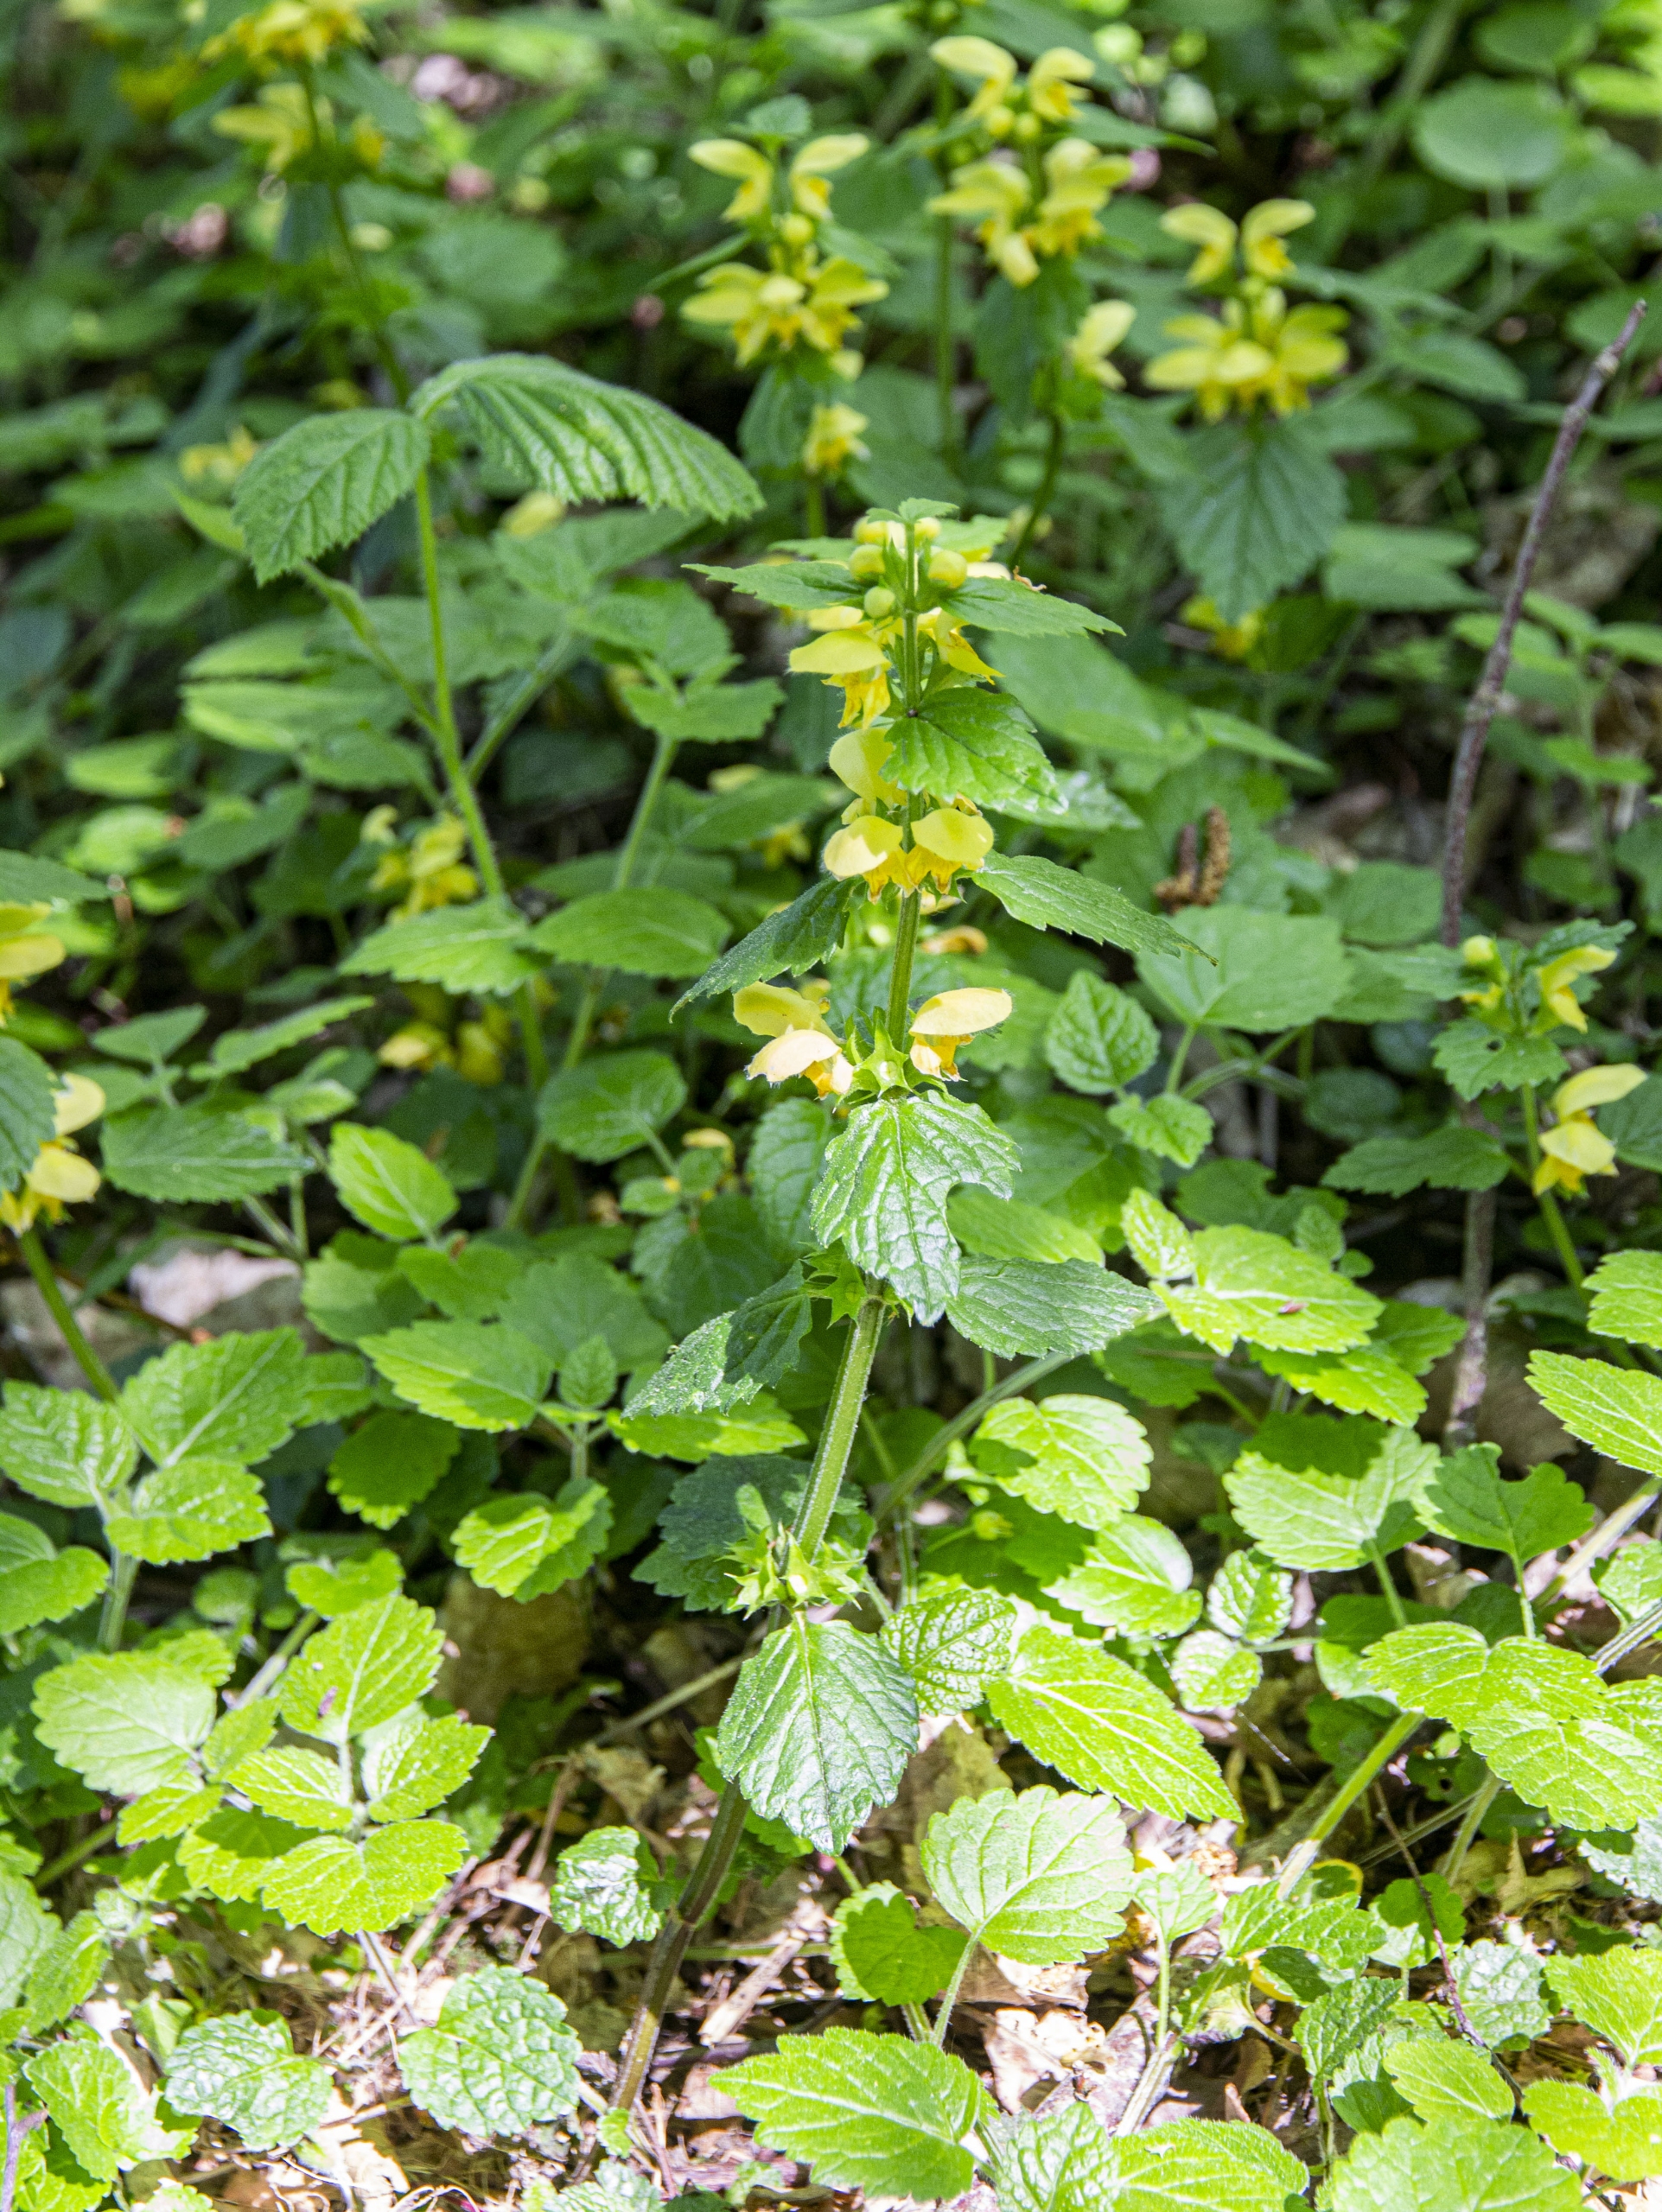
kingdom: Plantae
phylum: Tracheophyta
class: Magnoliopsida
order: Lamiales
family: Lamiaceae
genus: Lamium
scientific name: Lamium galeobdolon
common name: Almindelig guldnælde
